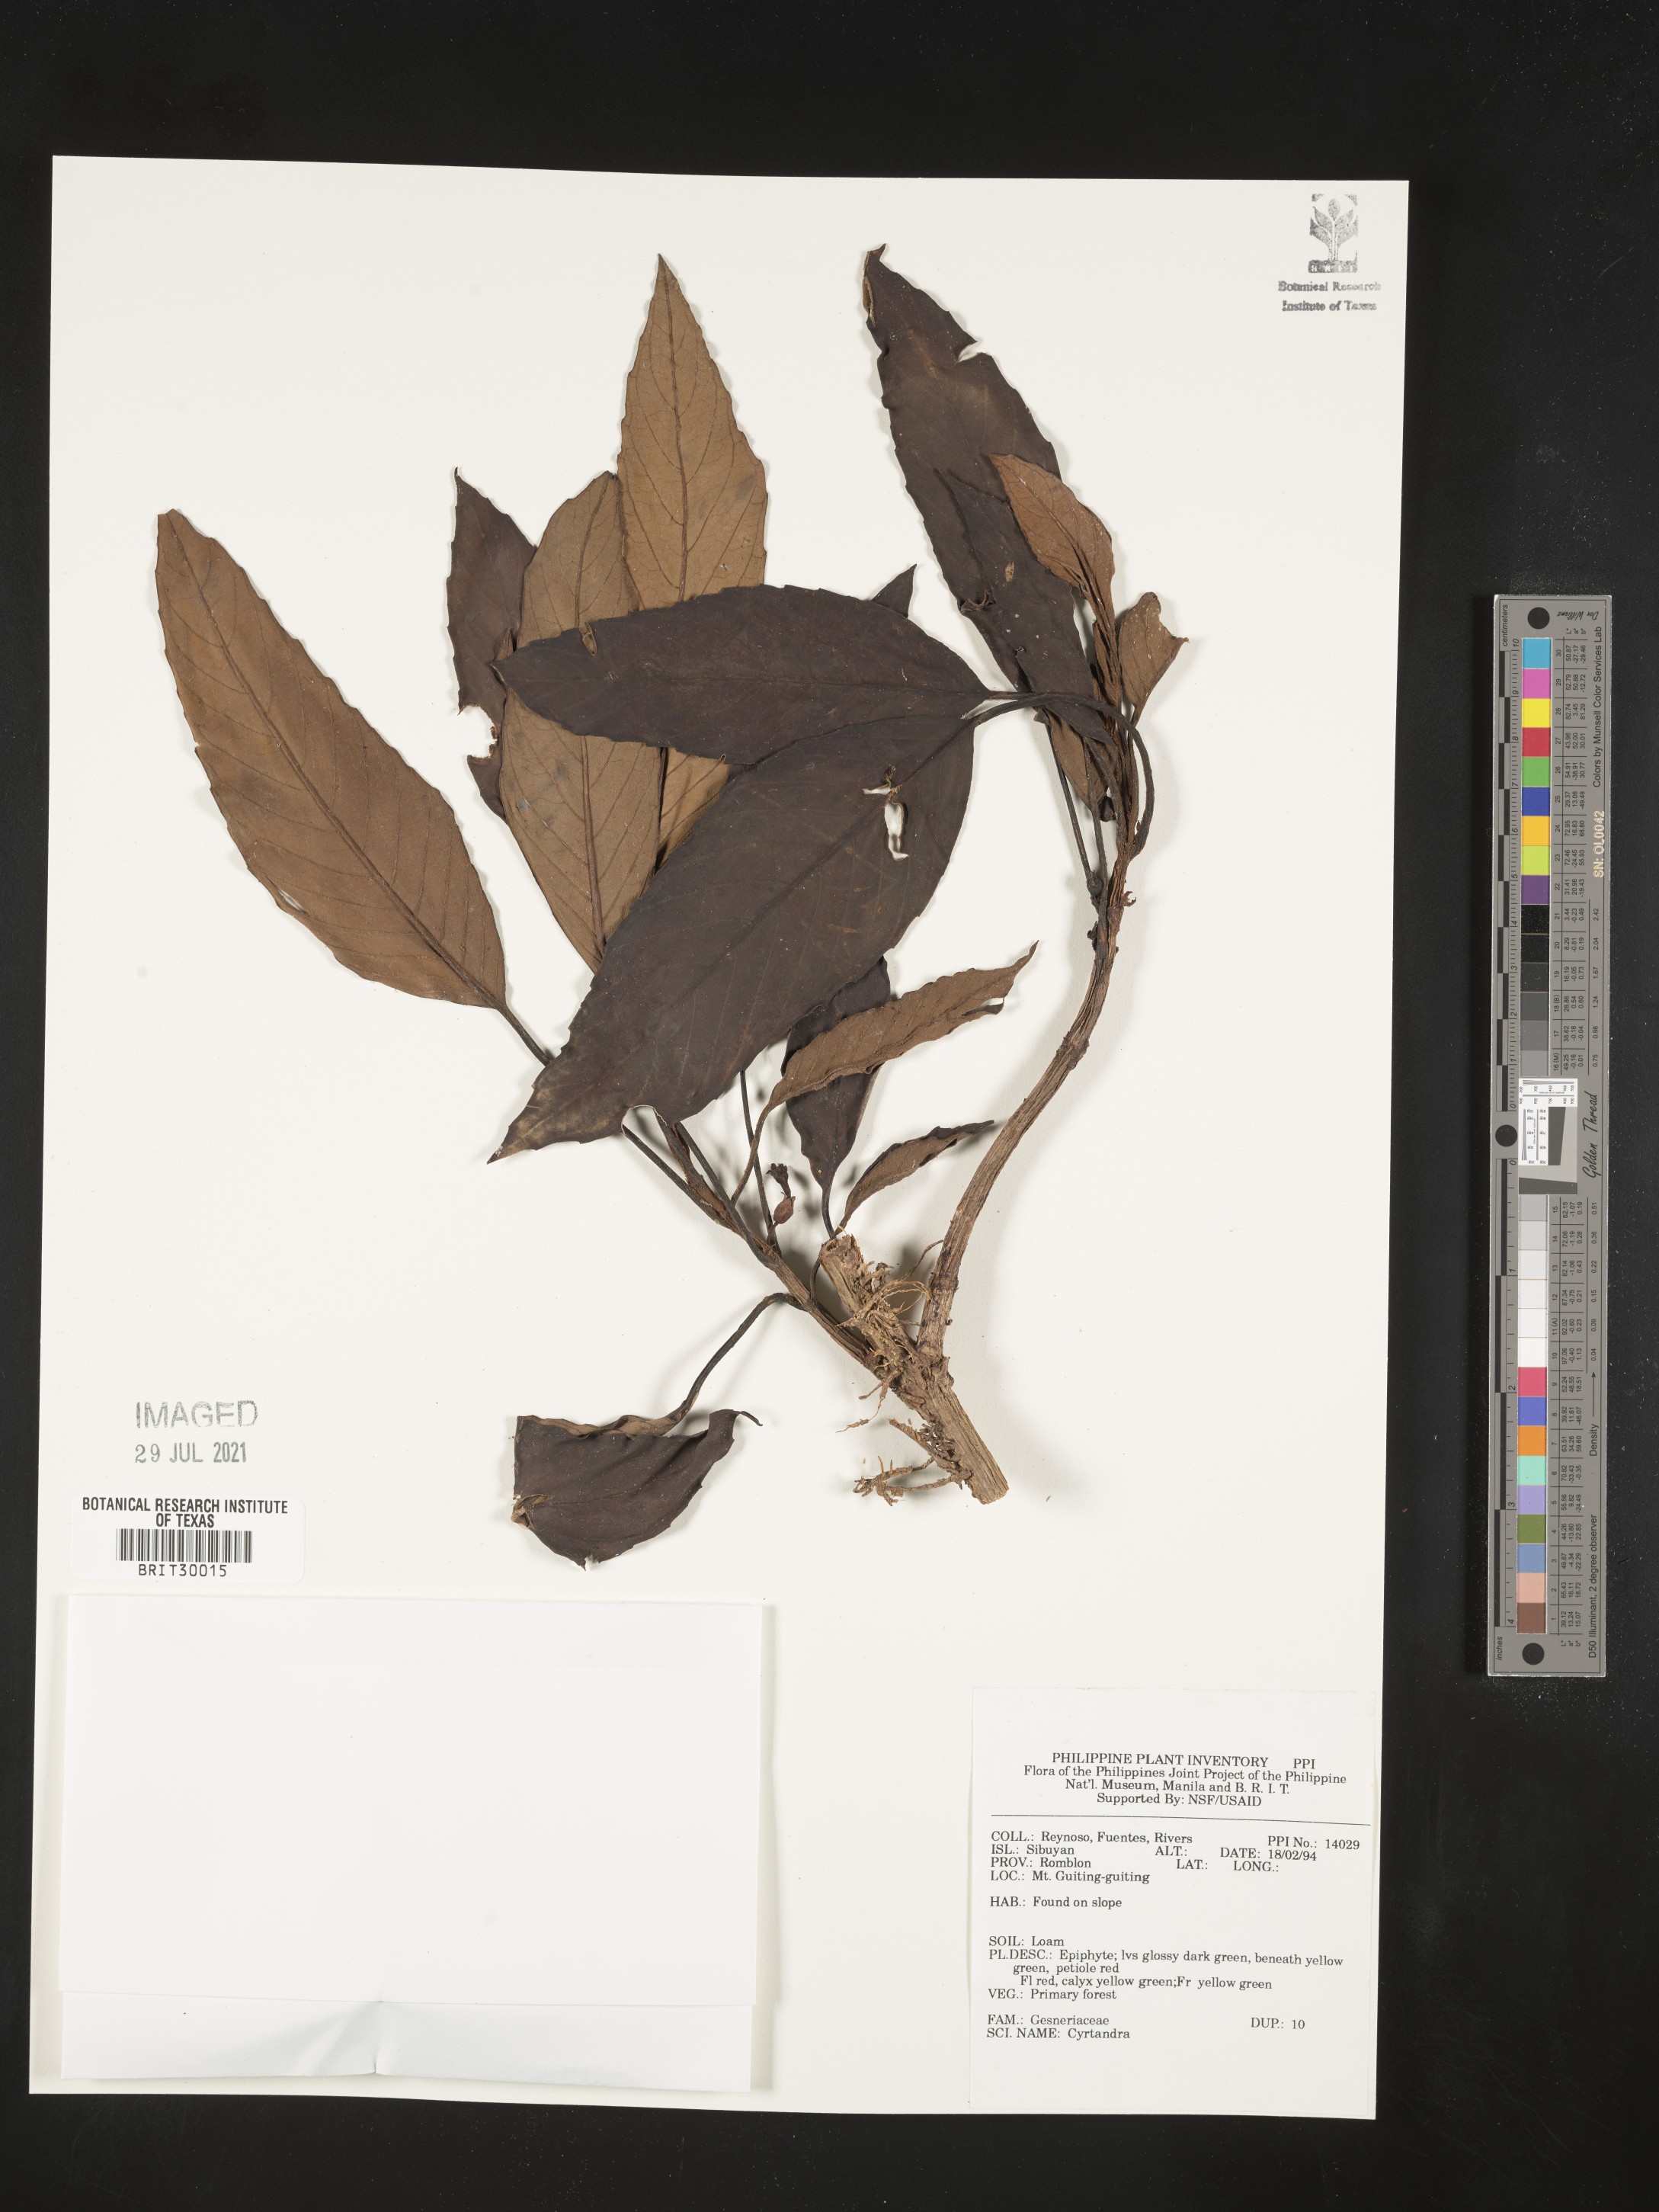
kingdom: Plantae
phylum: Tracheophyta
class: Magnoliopsida
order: Lamiales
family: Gesneriaceae
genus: Cyrtandra
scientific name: Cyrtandra
